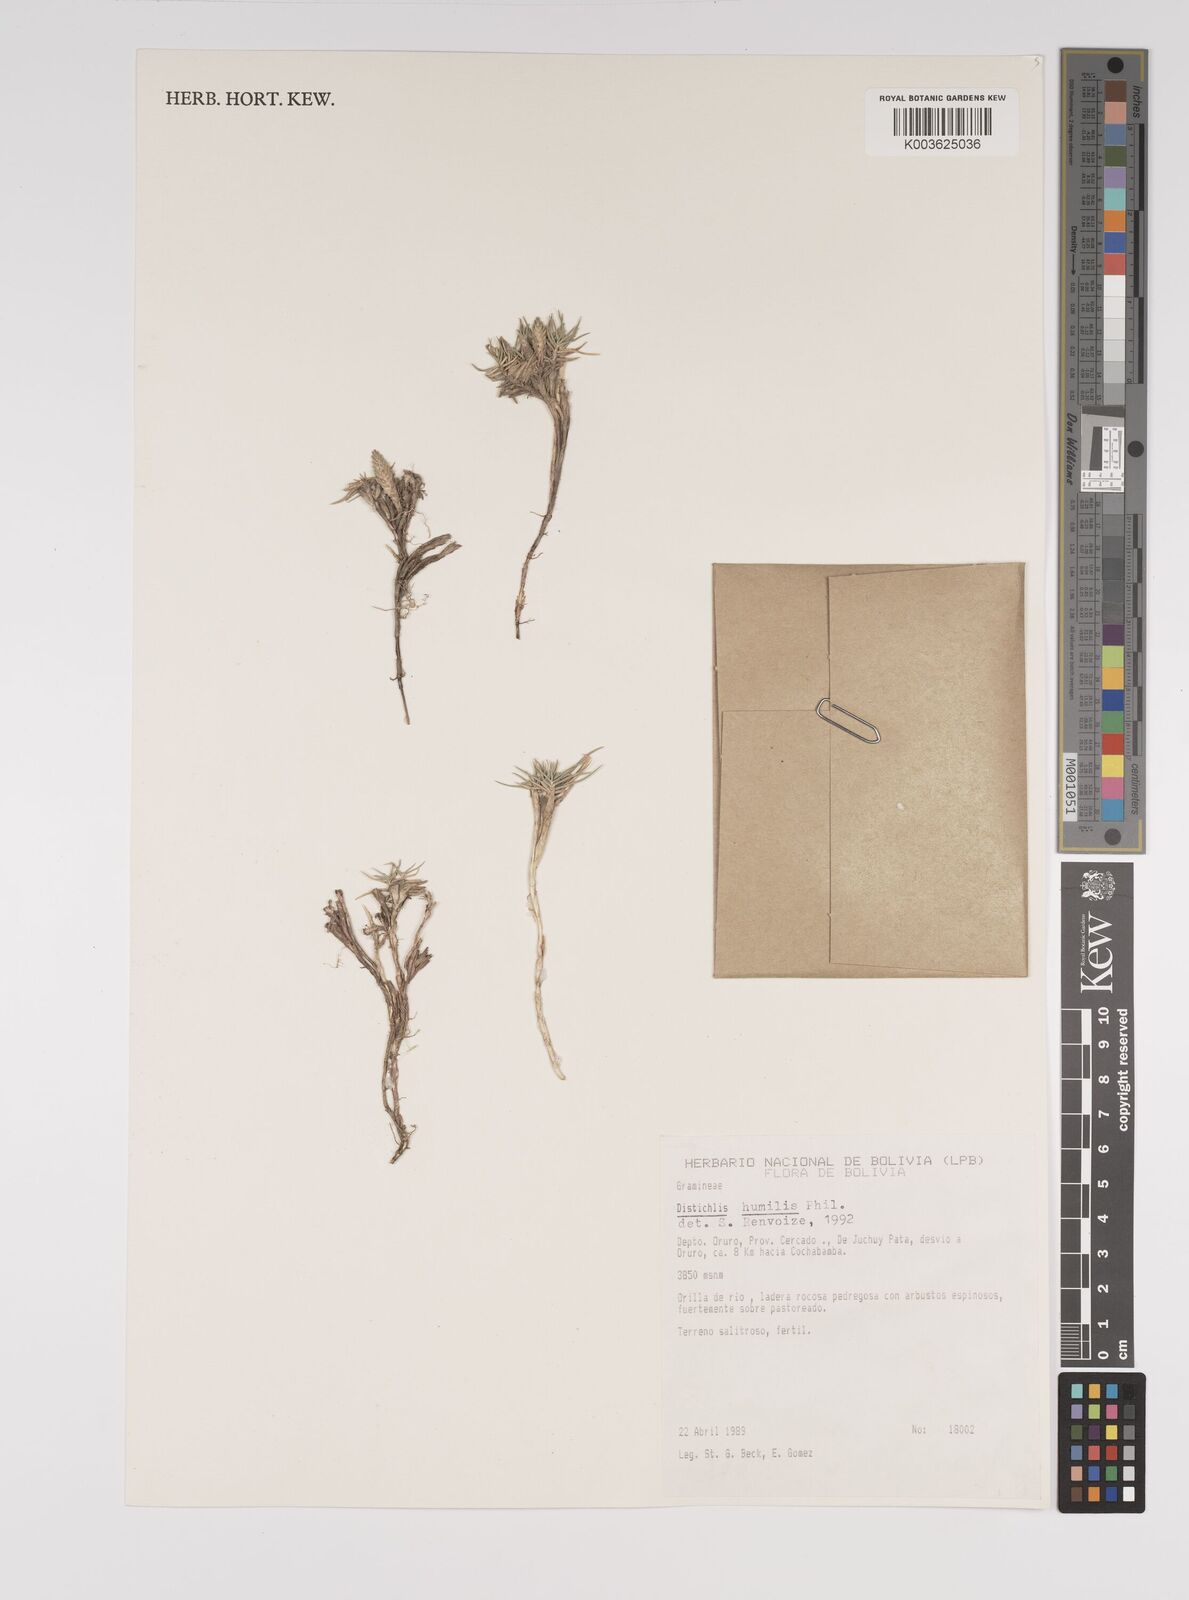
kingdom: Plantae
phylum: Tracheophyta
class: Liliopsida
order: Poales
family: Poaceae
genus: Distichlis
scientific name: Distichlis humilis
